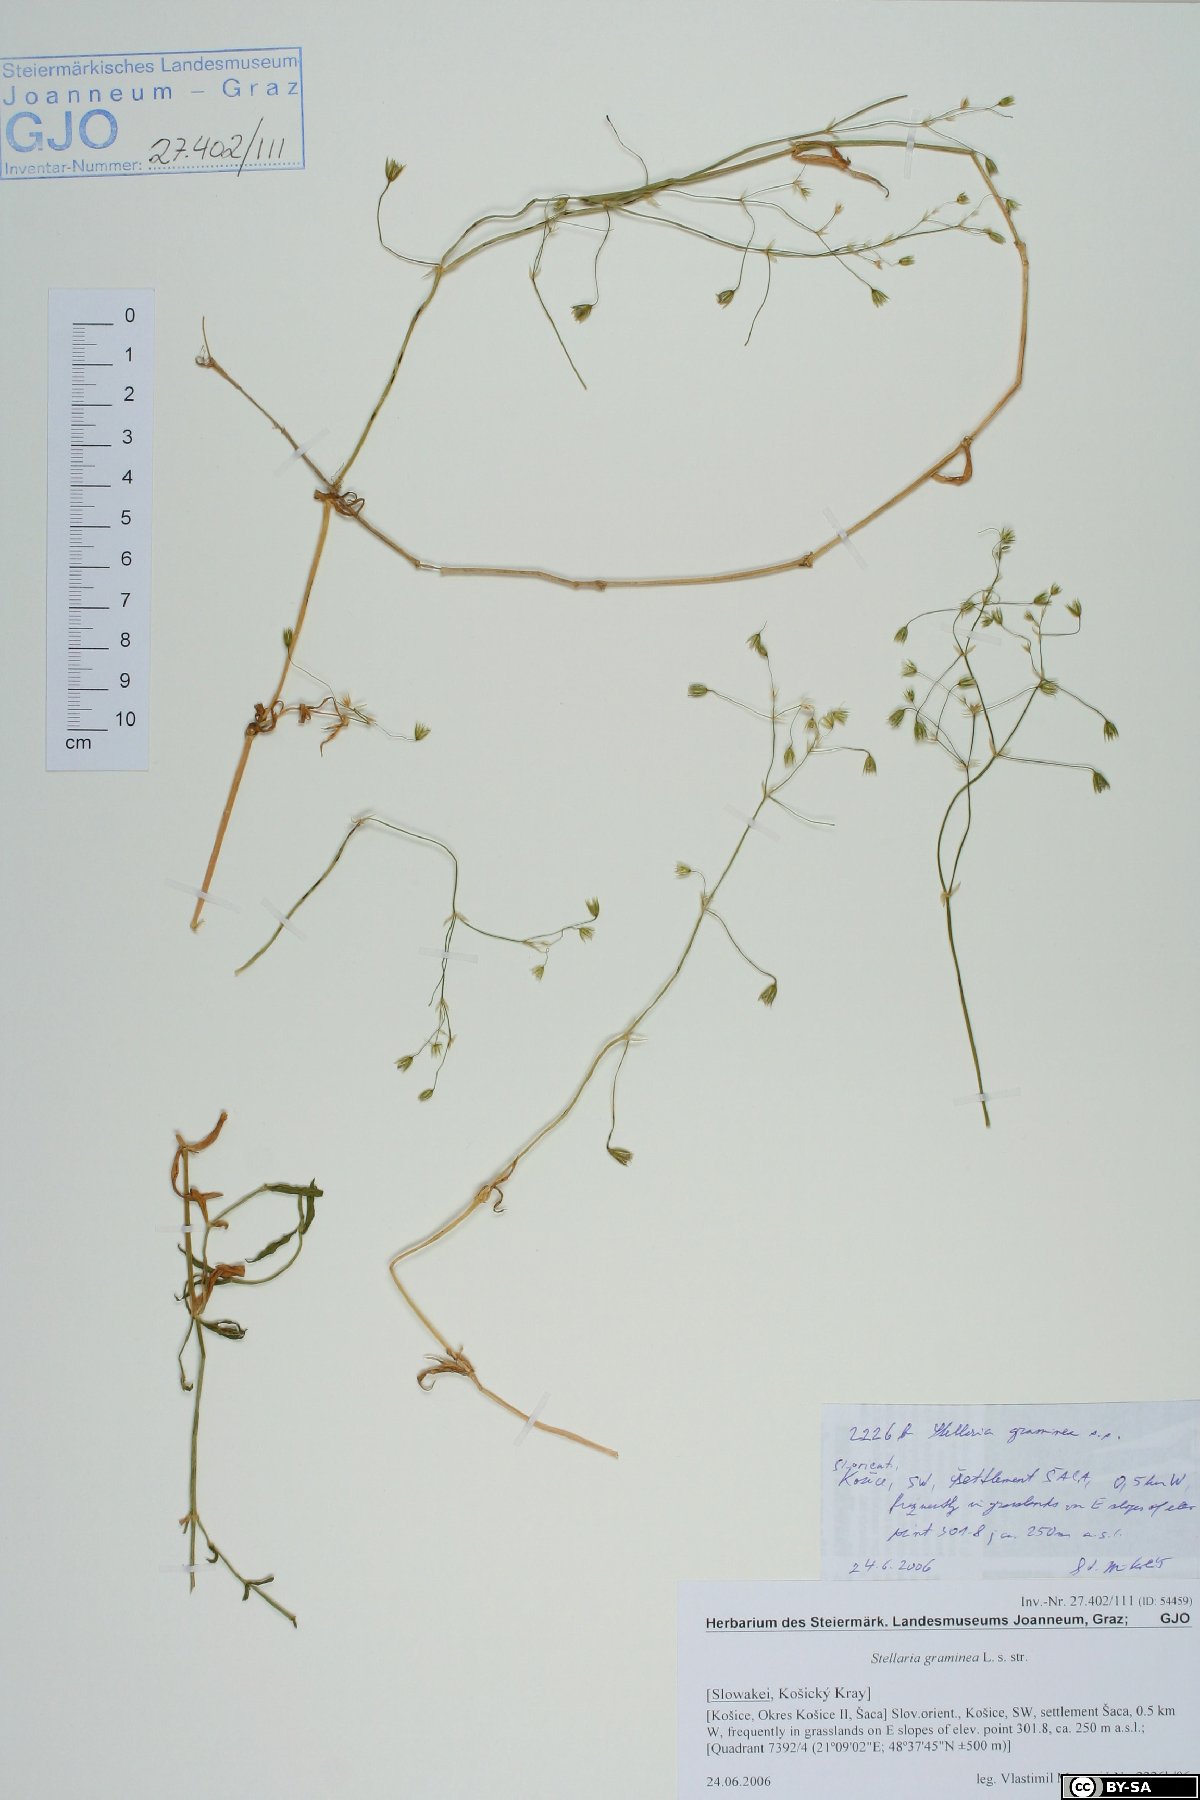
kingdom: Plantae
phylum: Tracheophyta
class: Magnoliopsida
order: Caryophyllales
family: Caryophyllaceae
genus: Stellaria
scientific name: Stellaria graminea
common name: Grass-like starwort
